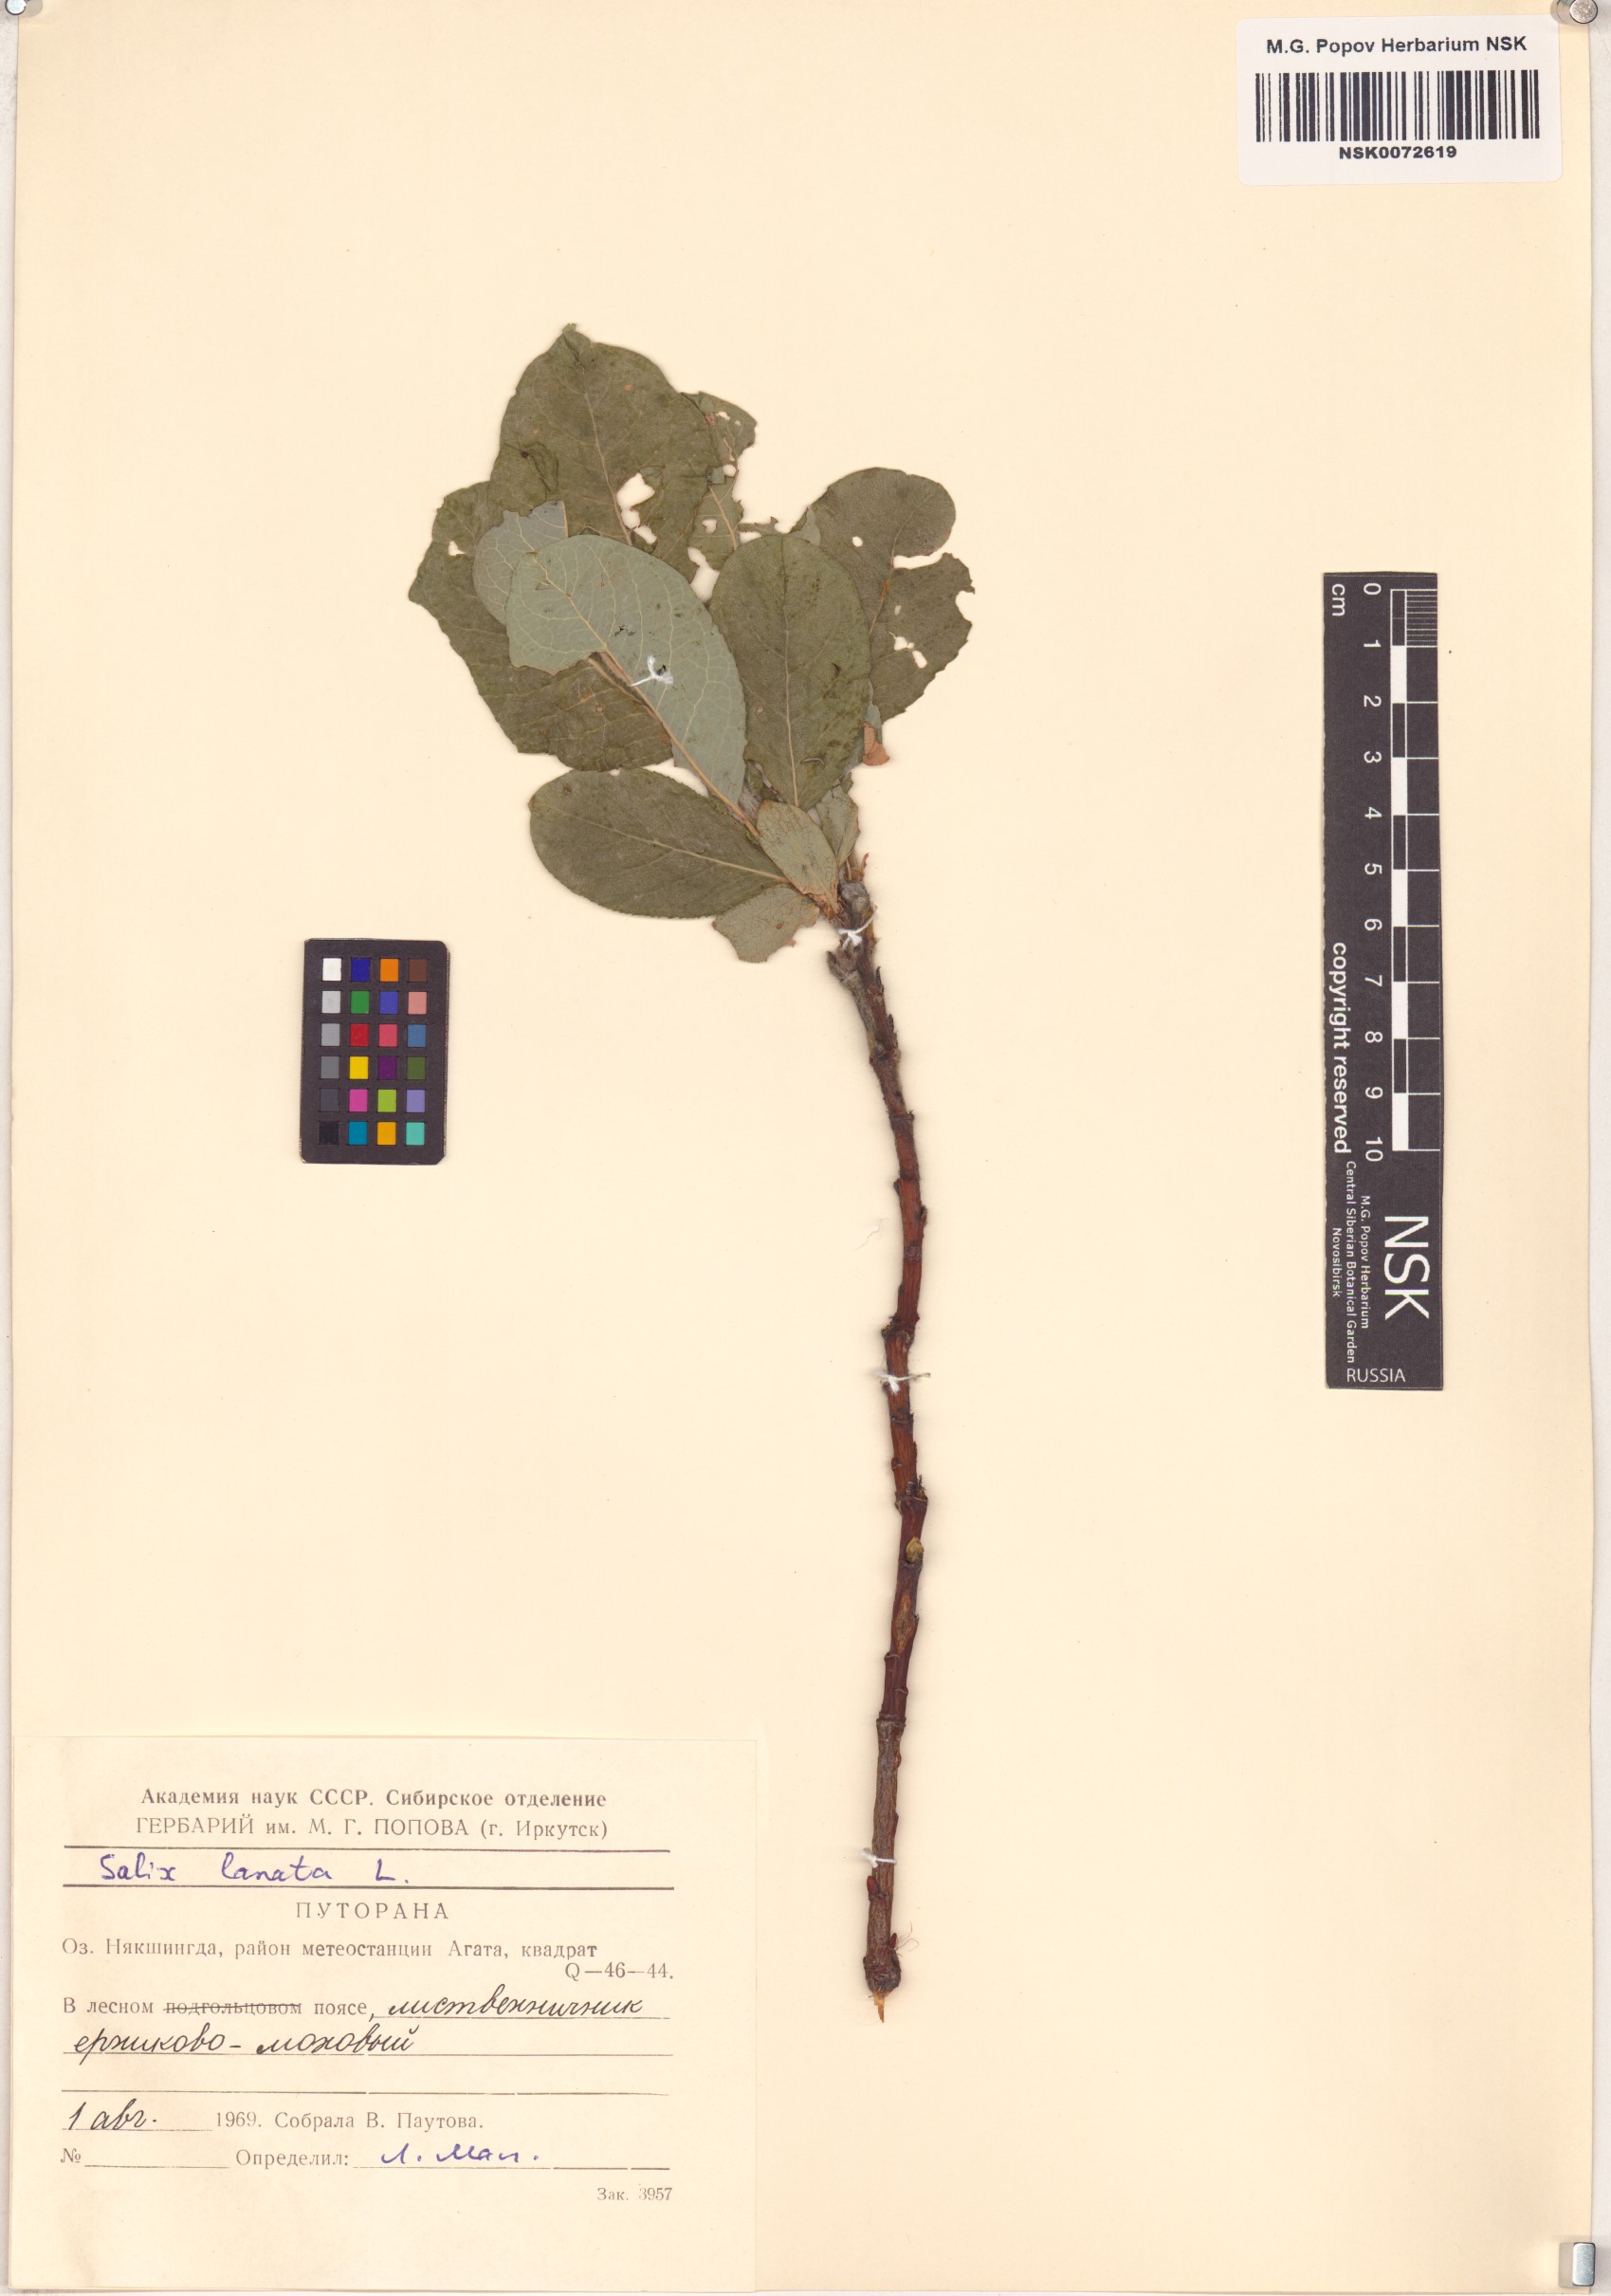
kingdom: Plantae
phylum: Tracheophyta
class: Magnoliopsida
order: Malpighiales
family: Salicaceae
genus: Salix
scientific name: Salix lanata
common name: Woolly willow
